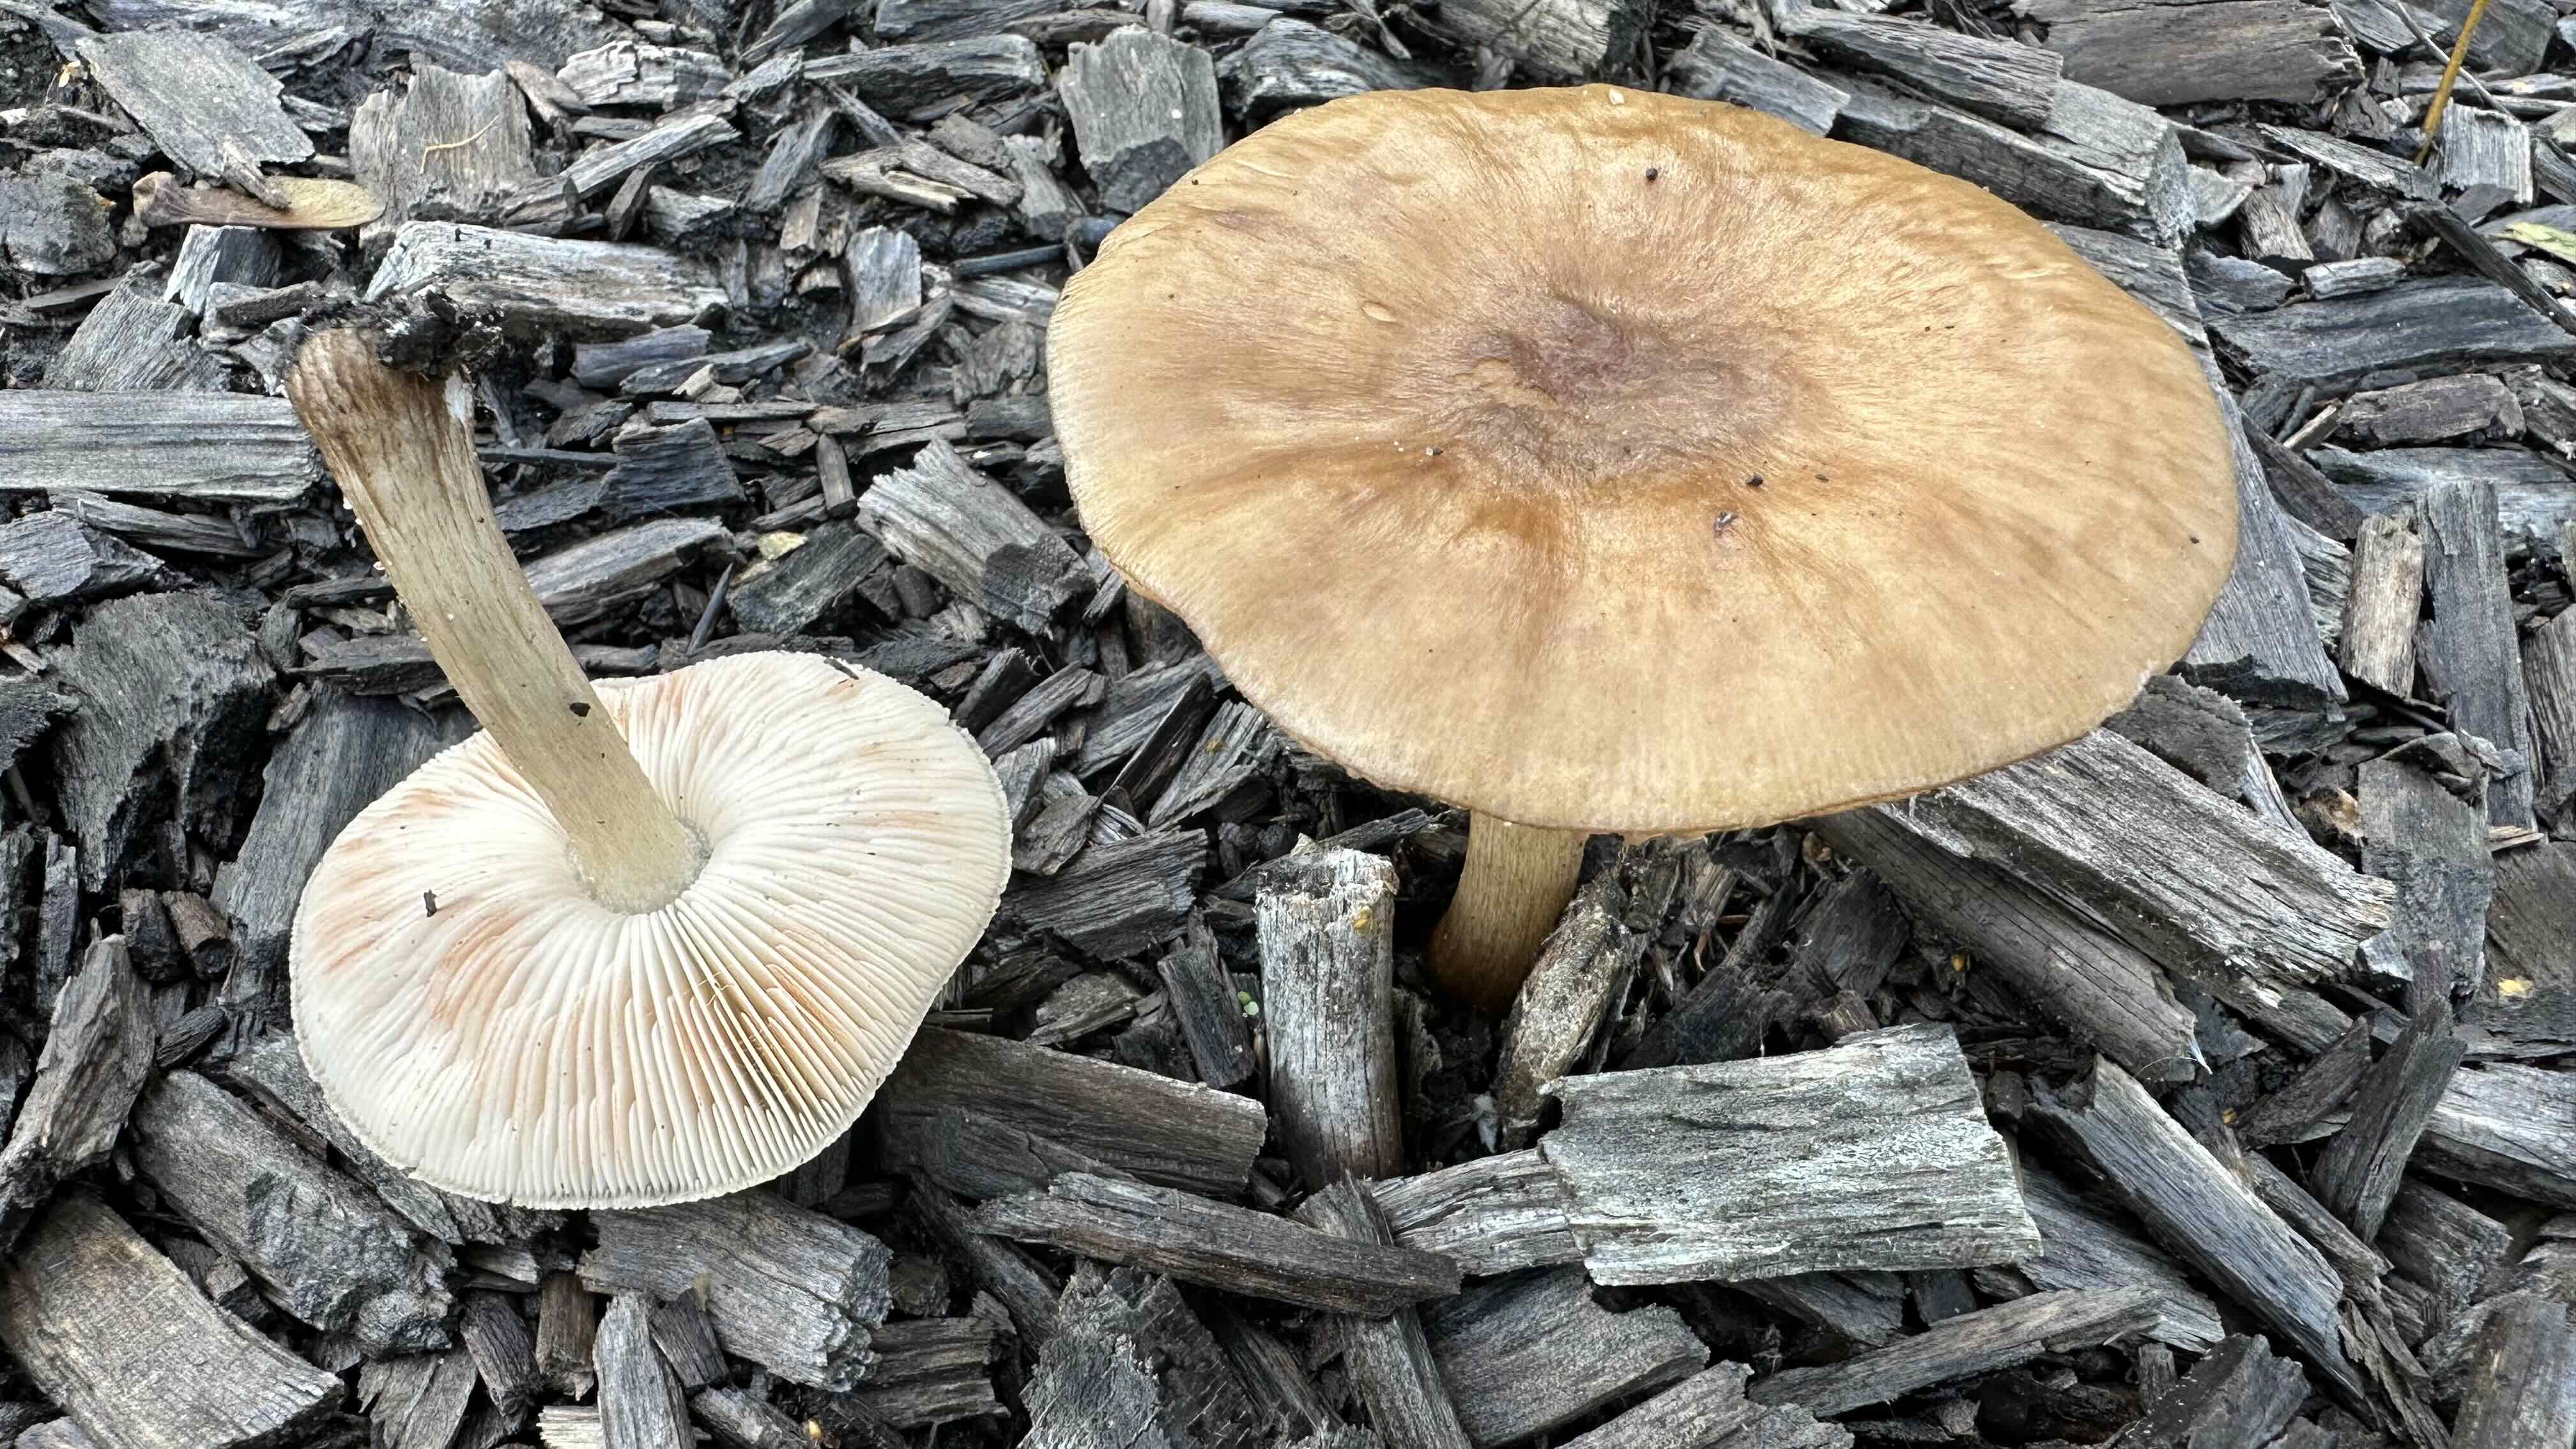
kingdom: Fungi
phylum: Basidiomycota
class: Agaricomycetes
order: Agaricales
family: Pluteaceae
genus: Pluteus
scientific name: Pluteus cervinus
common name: sodfarvet skærmhat
